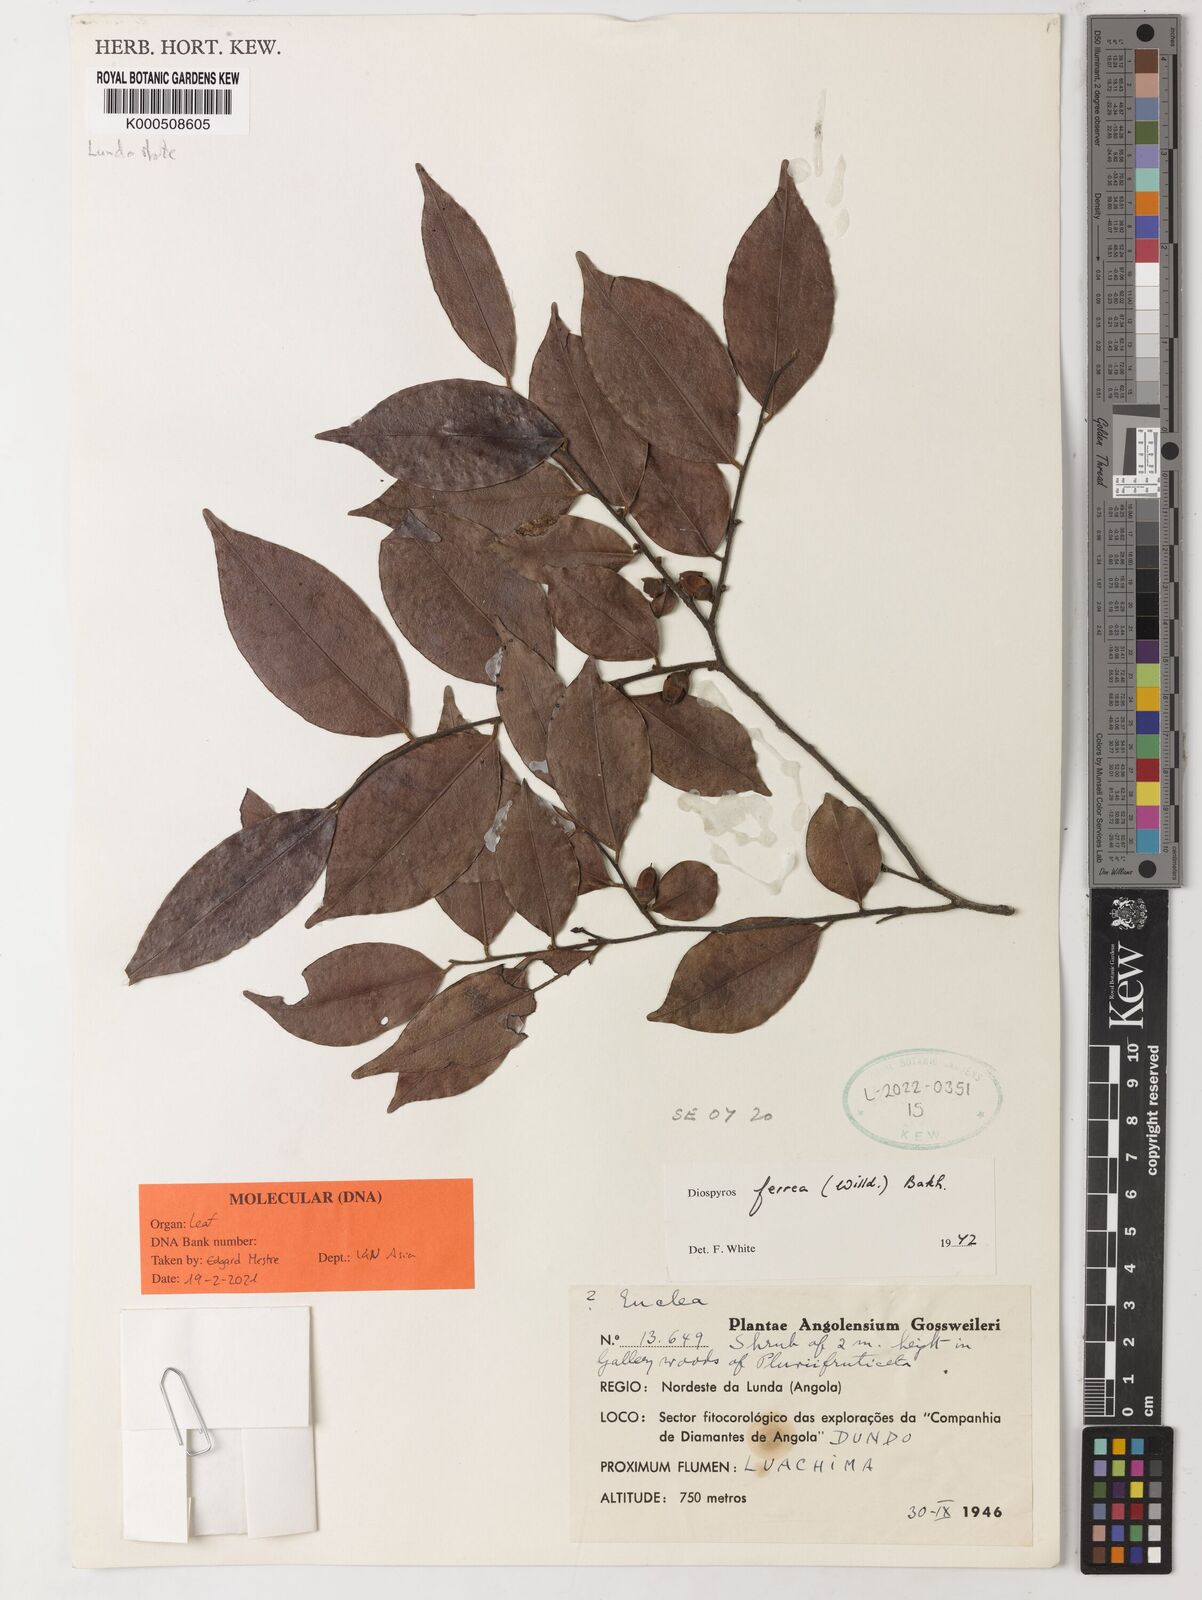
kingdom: Plantae
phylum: Tracheophyta
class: Magnoliopsida
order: Ericales
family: Ebenaceae
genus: Diospyros
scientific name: Diospyros ferrea
